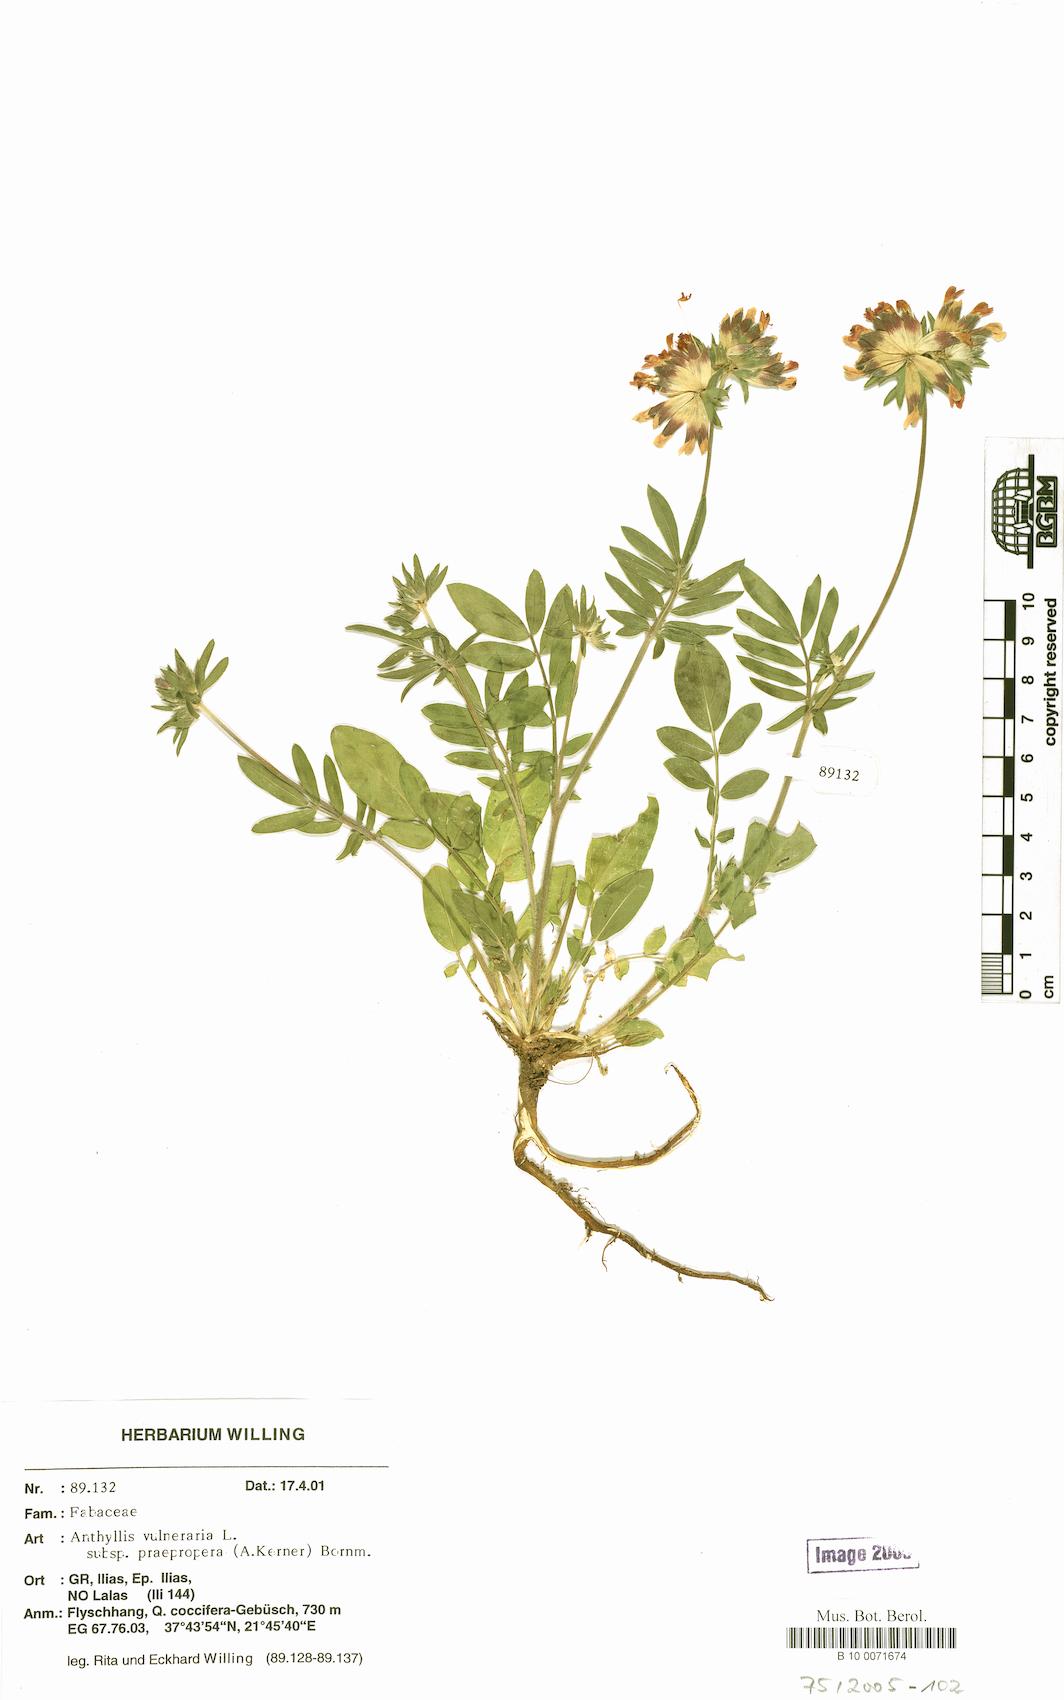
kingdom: Plantae
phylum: Tracheophyta
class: Magnoliopsida
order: Fabales
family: Fabaceae
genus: Anthyllis
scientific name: Anthyllis vulneraria
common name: Kidney vetch
